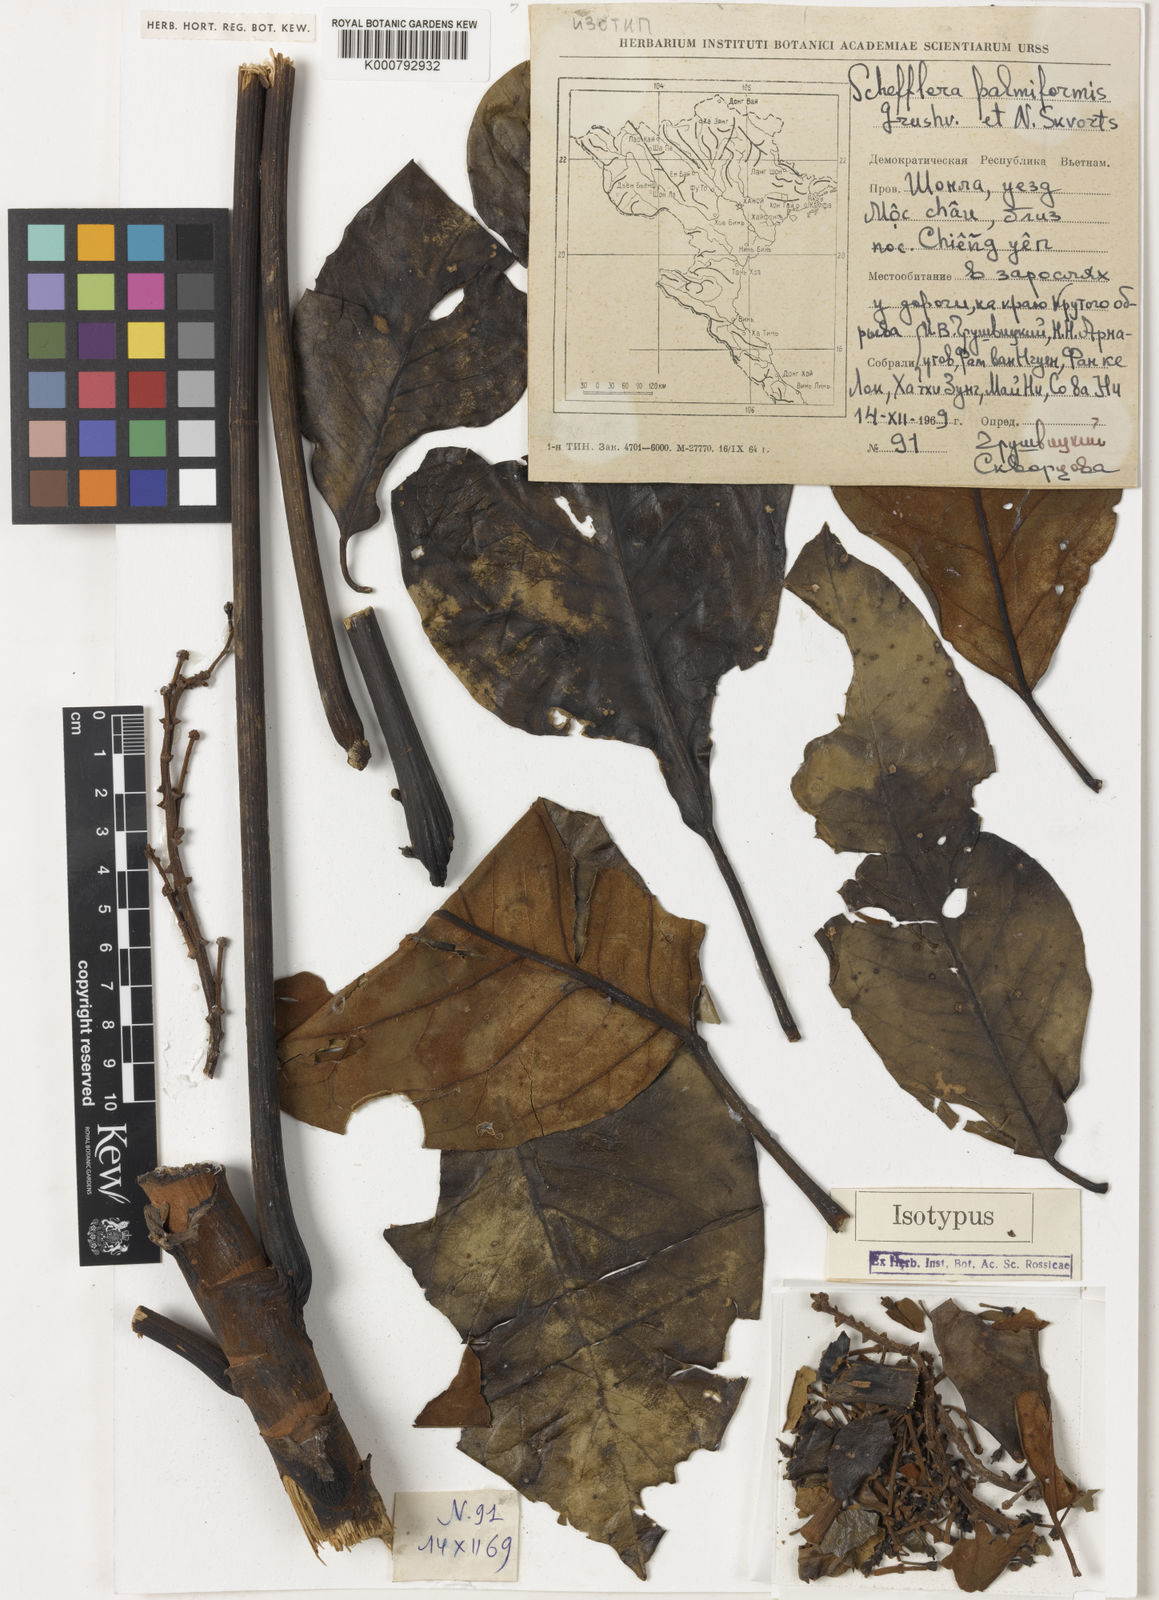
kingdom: Plantae
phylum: Tracheophyta
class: Magnoliopsida
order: Apiales
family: Araliaceae
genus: Heptapleurum
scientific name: Heptapleurum palmiforme
